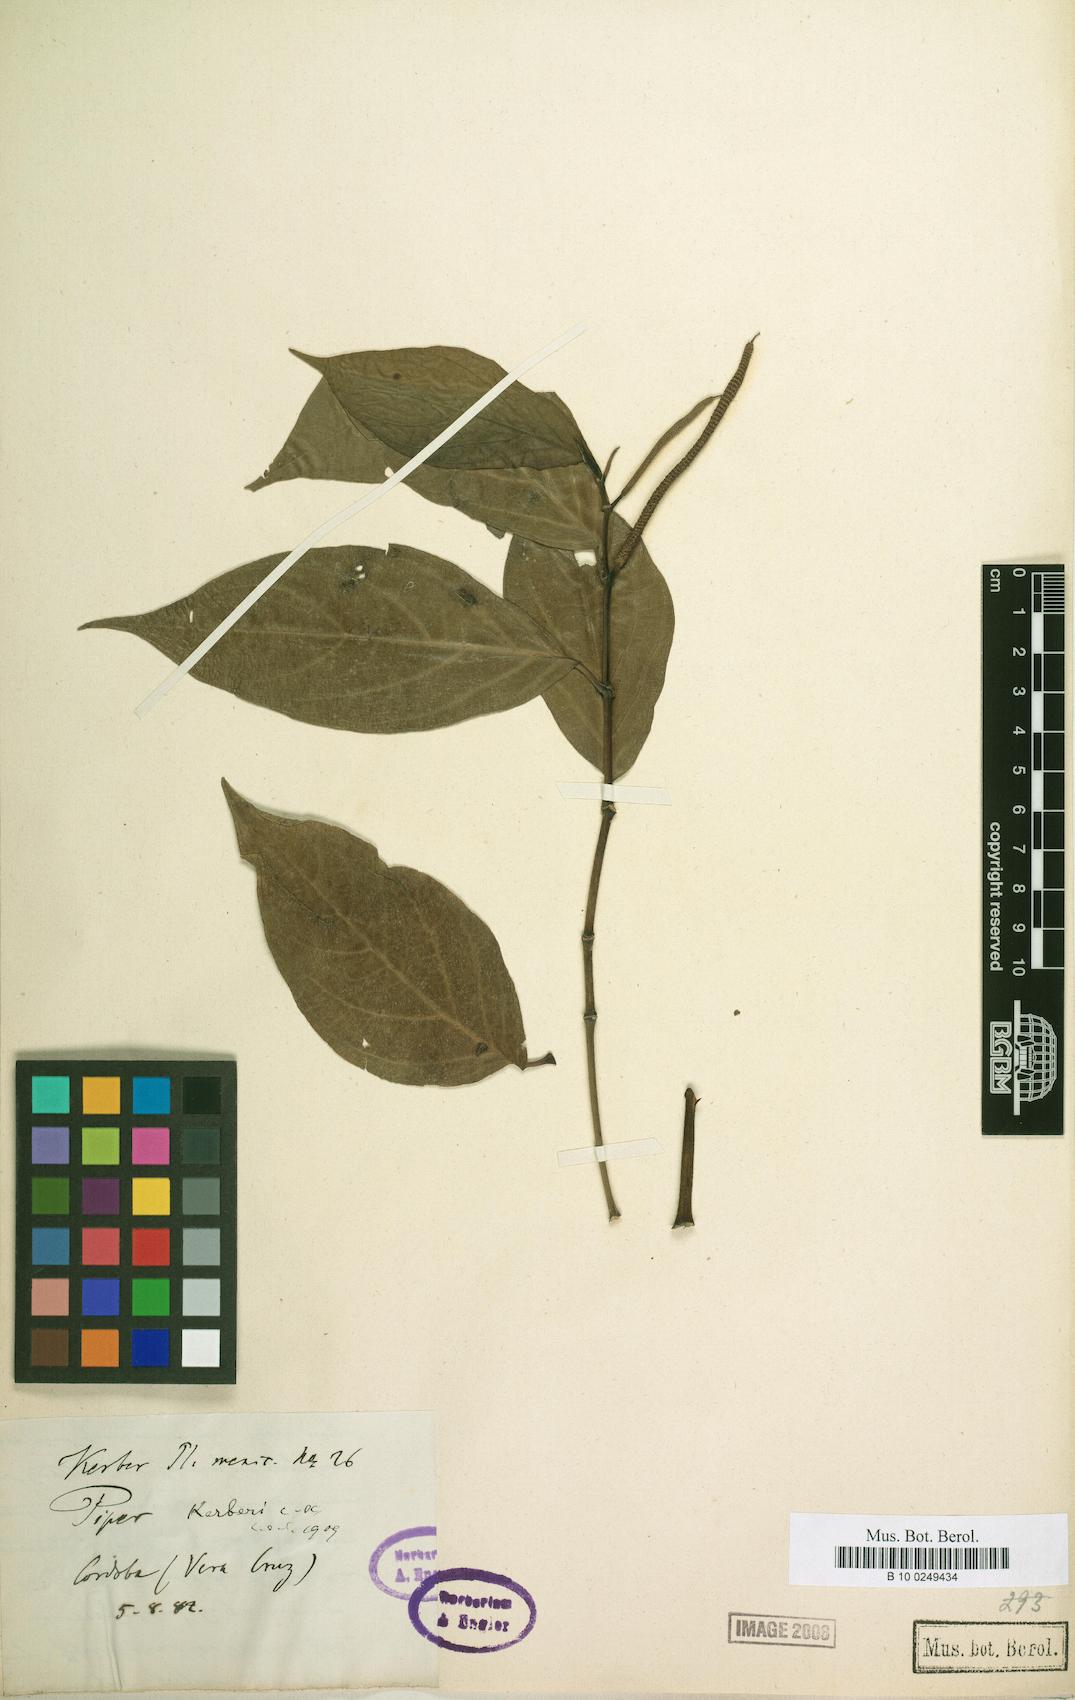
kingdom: Plantae
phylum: Tracheophyta
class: Magnoliopsida
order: Piperales
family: Piperaceae
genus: Piper
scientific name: Piper kerberi
